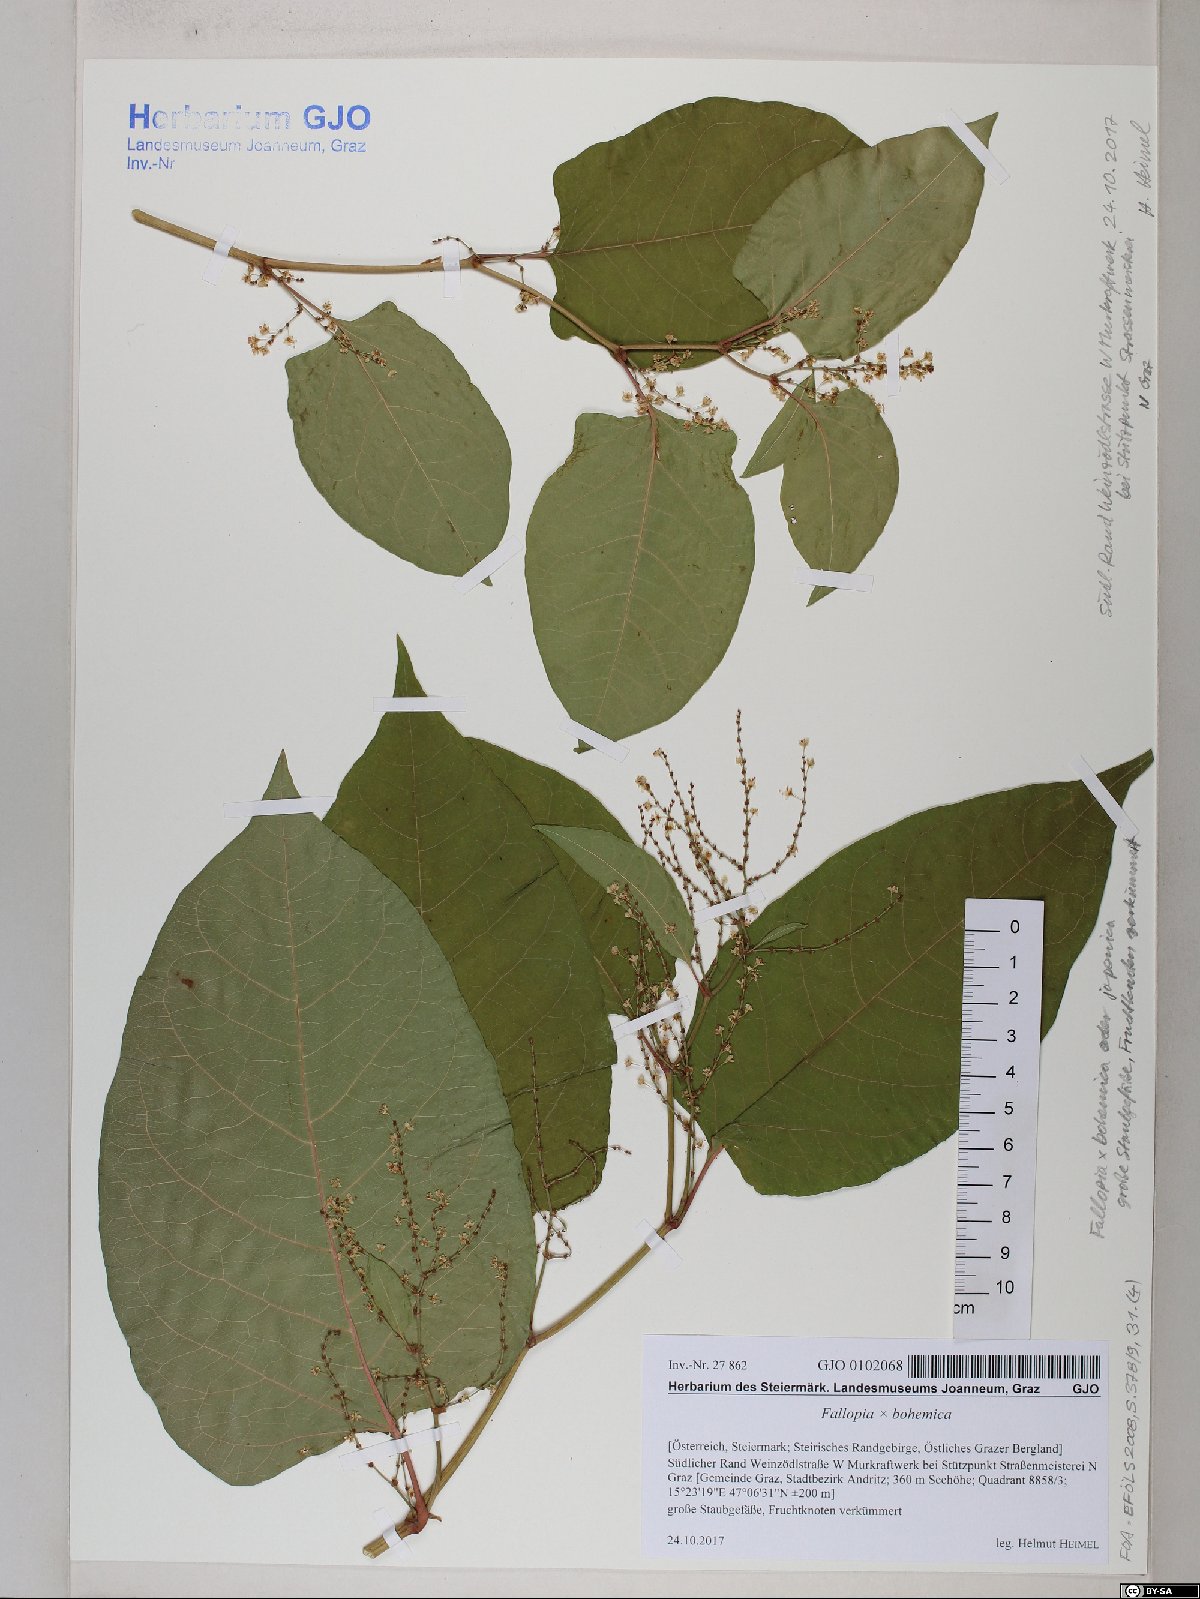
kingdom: Plantae
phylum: Tracheophyta
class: Magnoliopsida
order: Caryophyllales
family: Polygonaceae
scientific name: Polygonaceae
